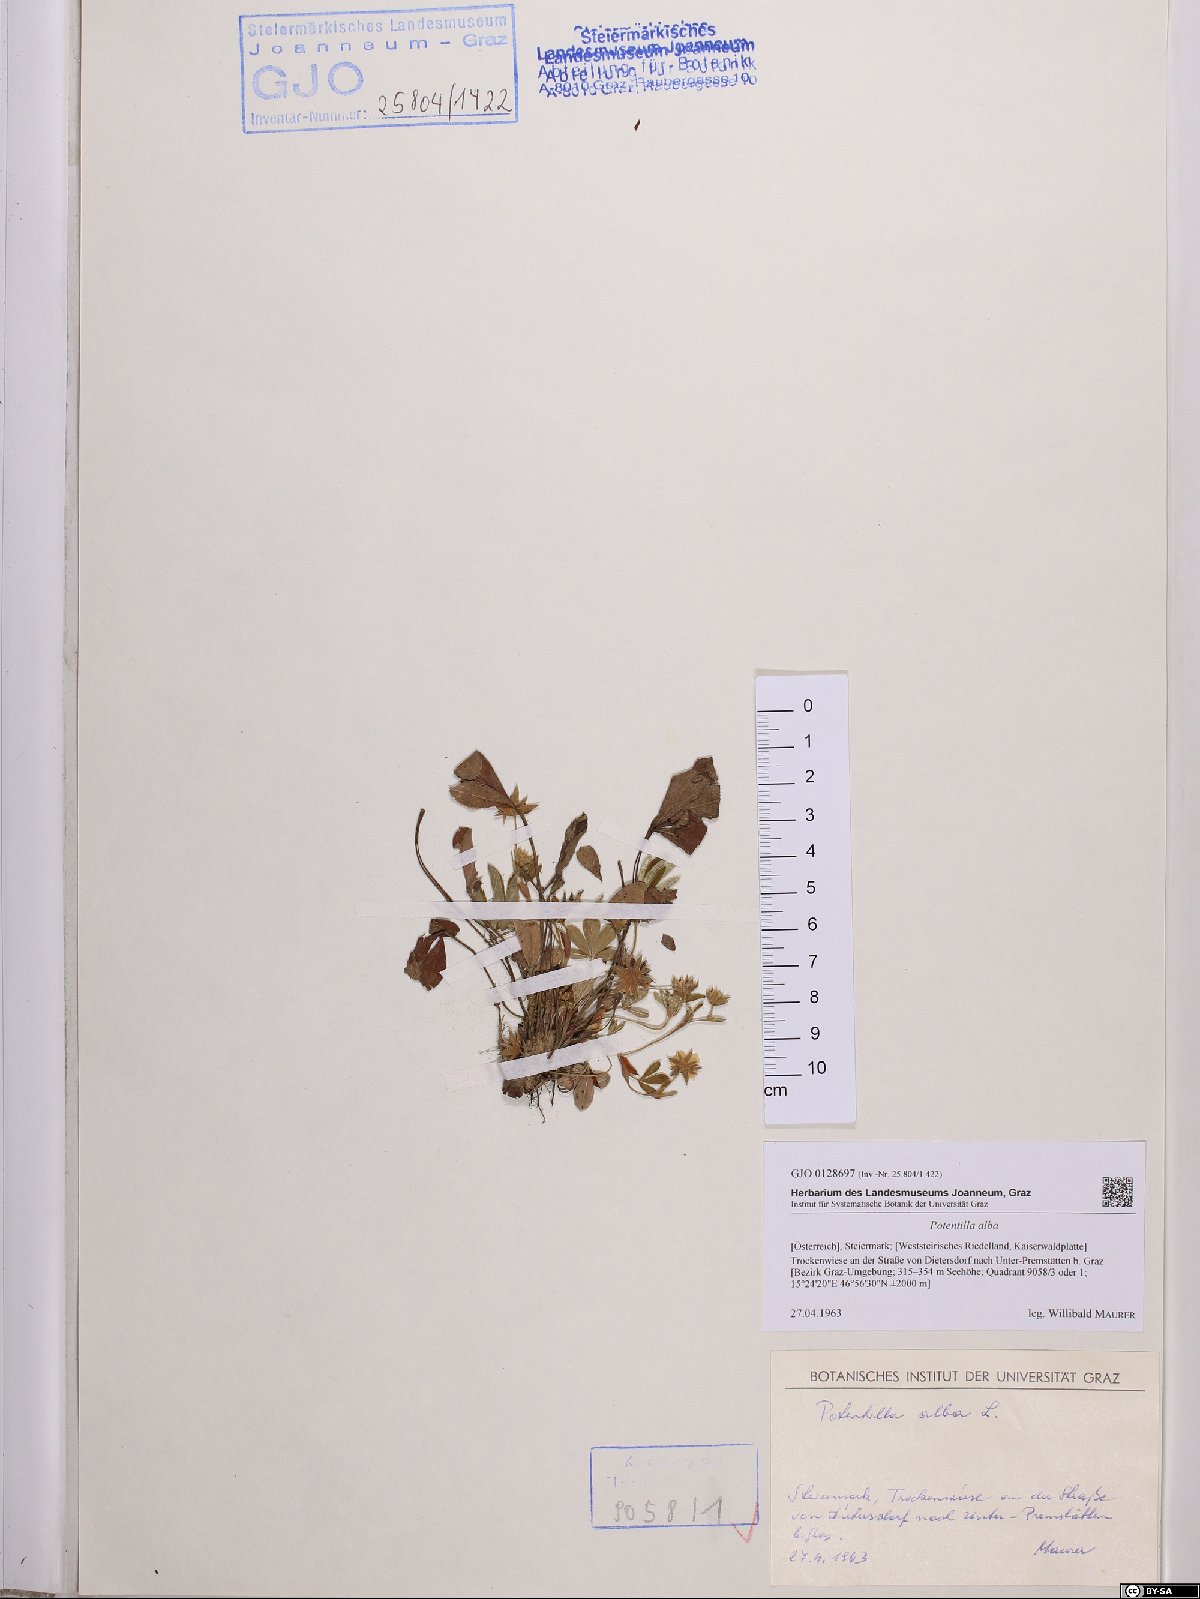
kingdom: Plantae
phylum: Tracheophyta
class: Magnoliopsida
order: Rosales
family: Rosaceae
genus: Potentilla
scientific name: Potentilla alba
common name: White cinquefoil
